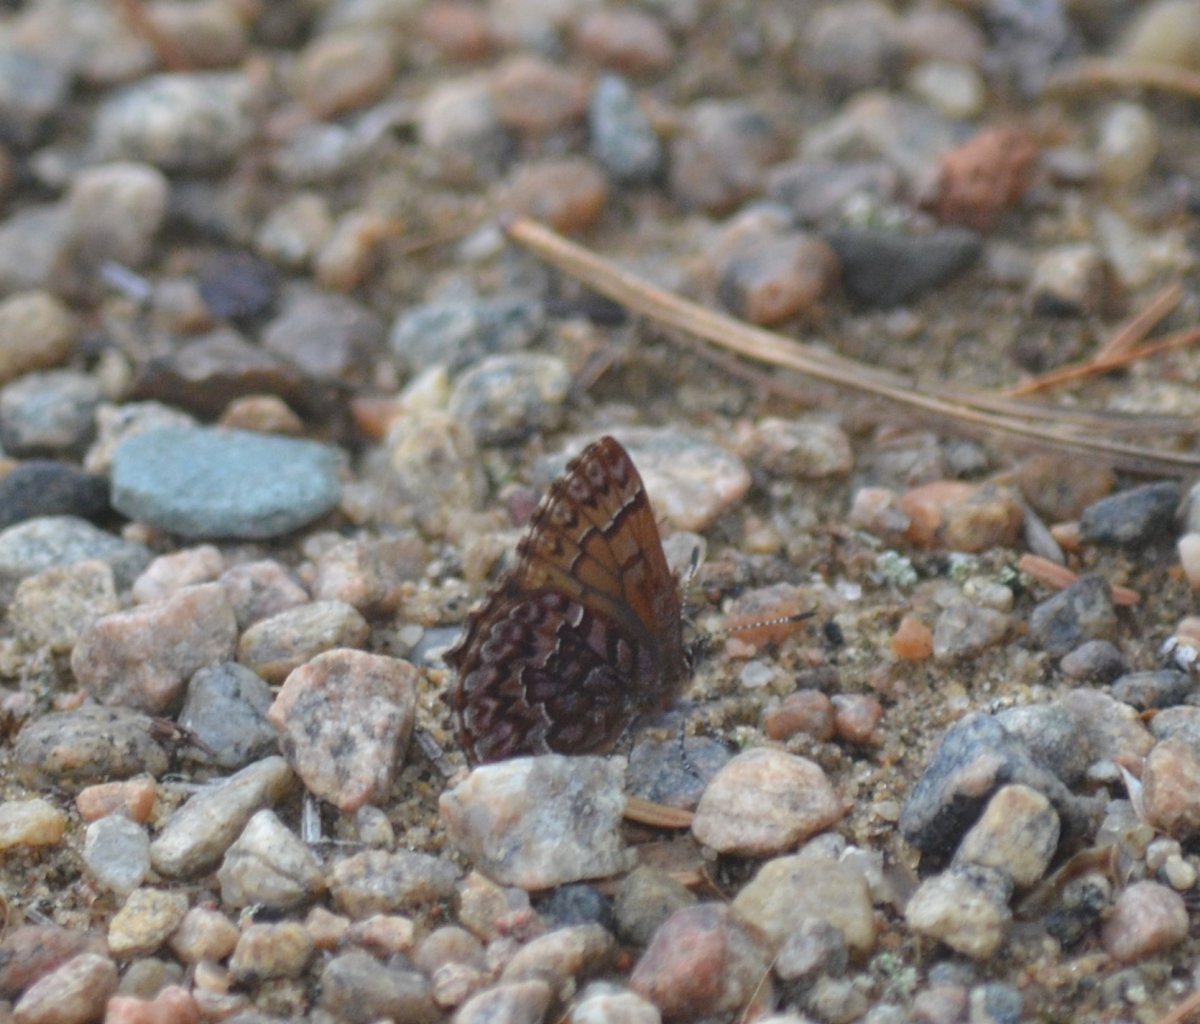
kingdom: Animalia
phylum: Arthropoda
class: Insecta
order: Lepidoptera
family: Lycaenidae
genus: Incisalia
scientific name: Incisalia eryphon
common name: Western Pine Elfin
